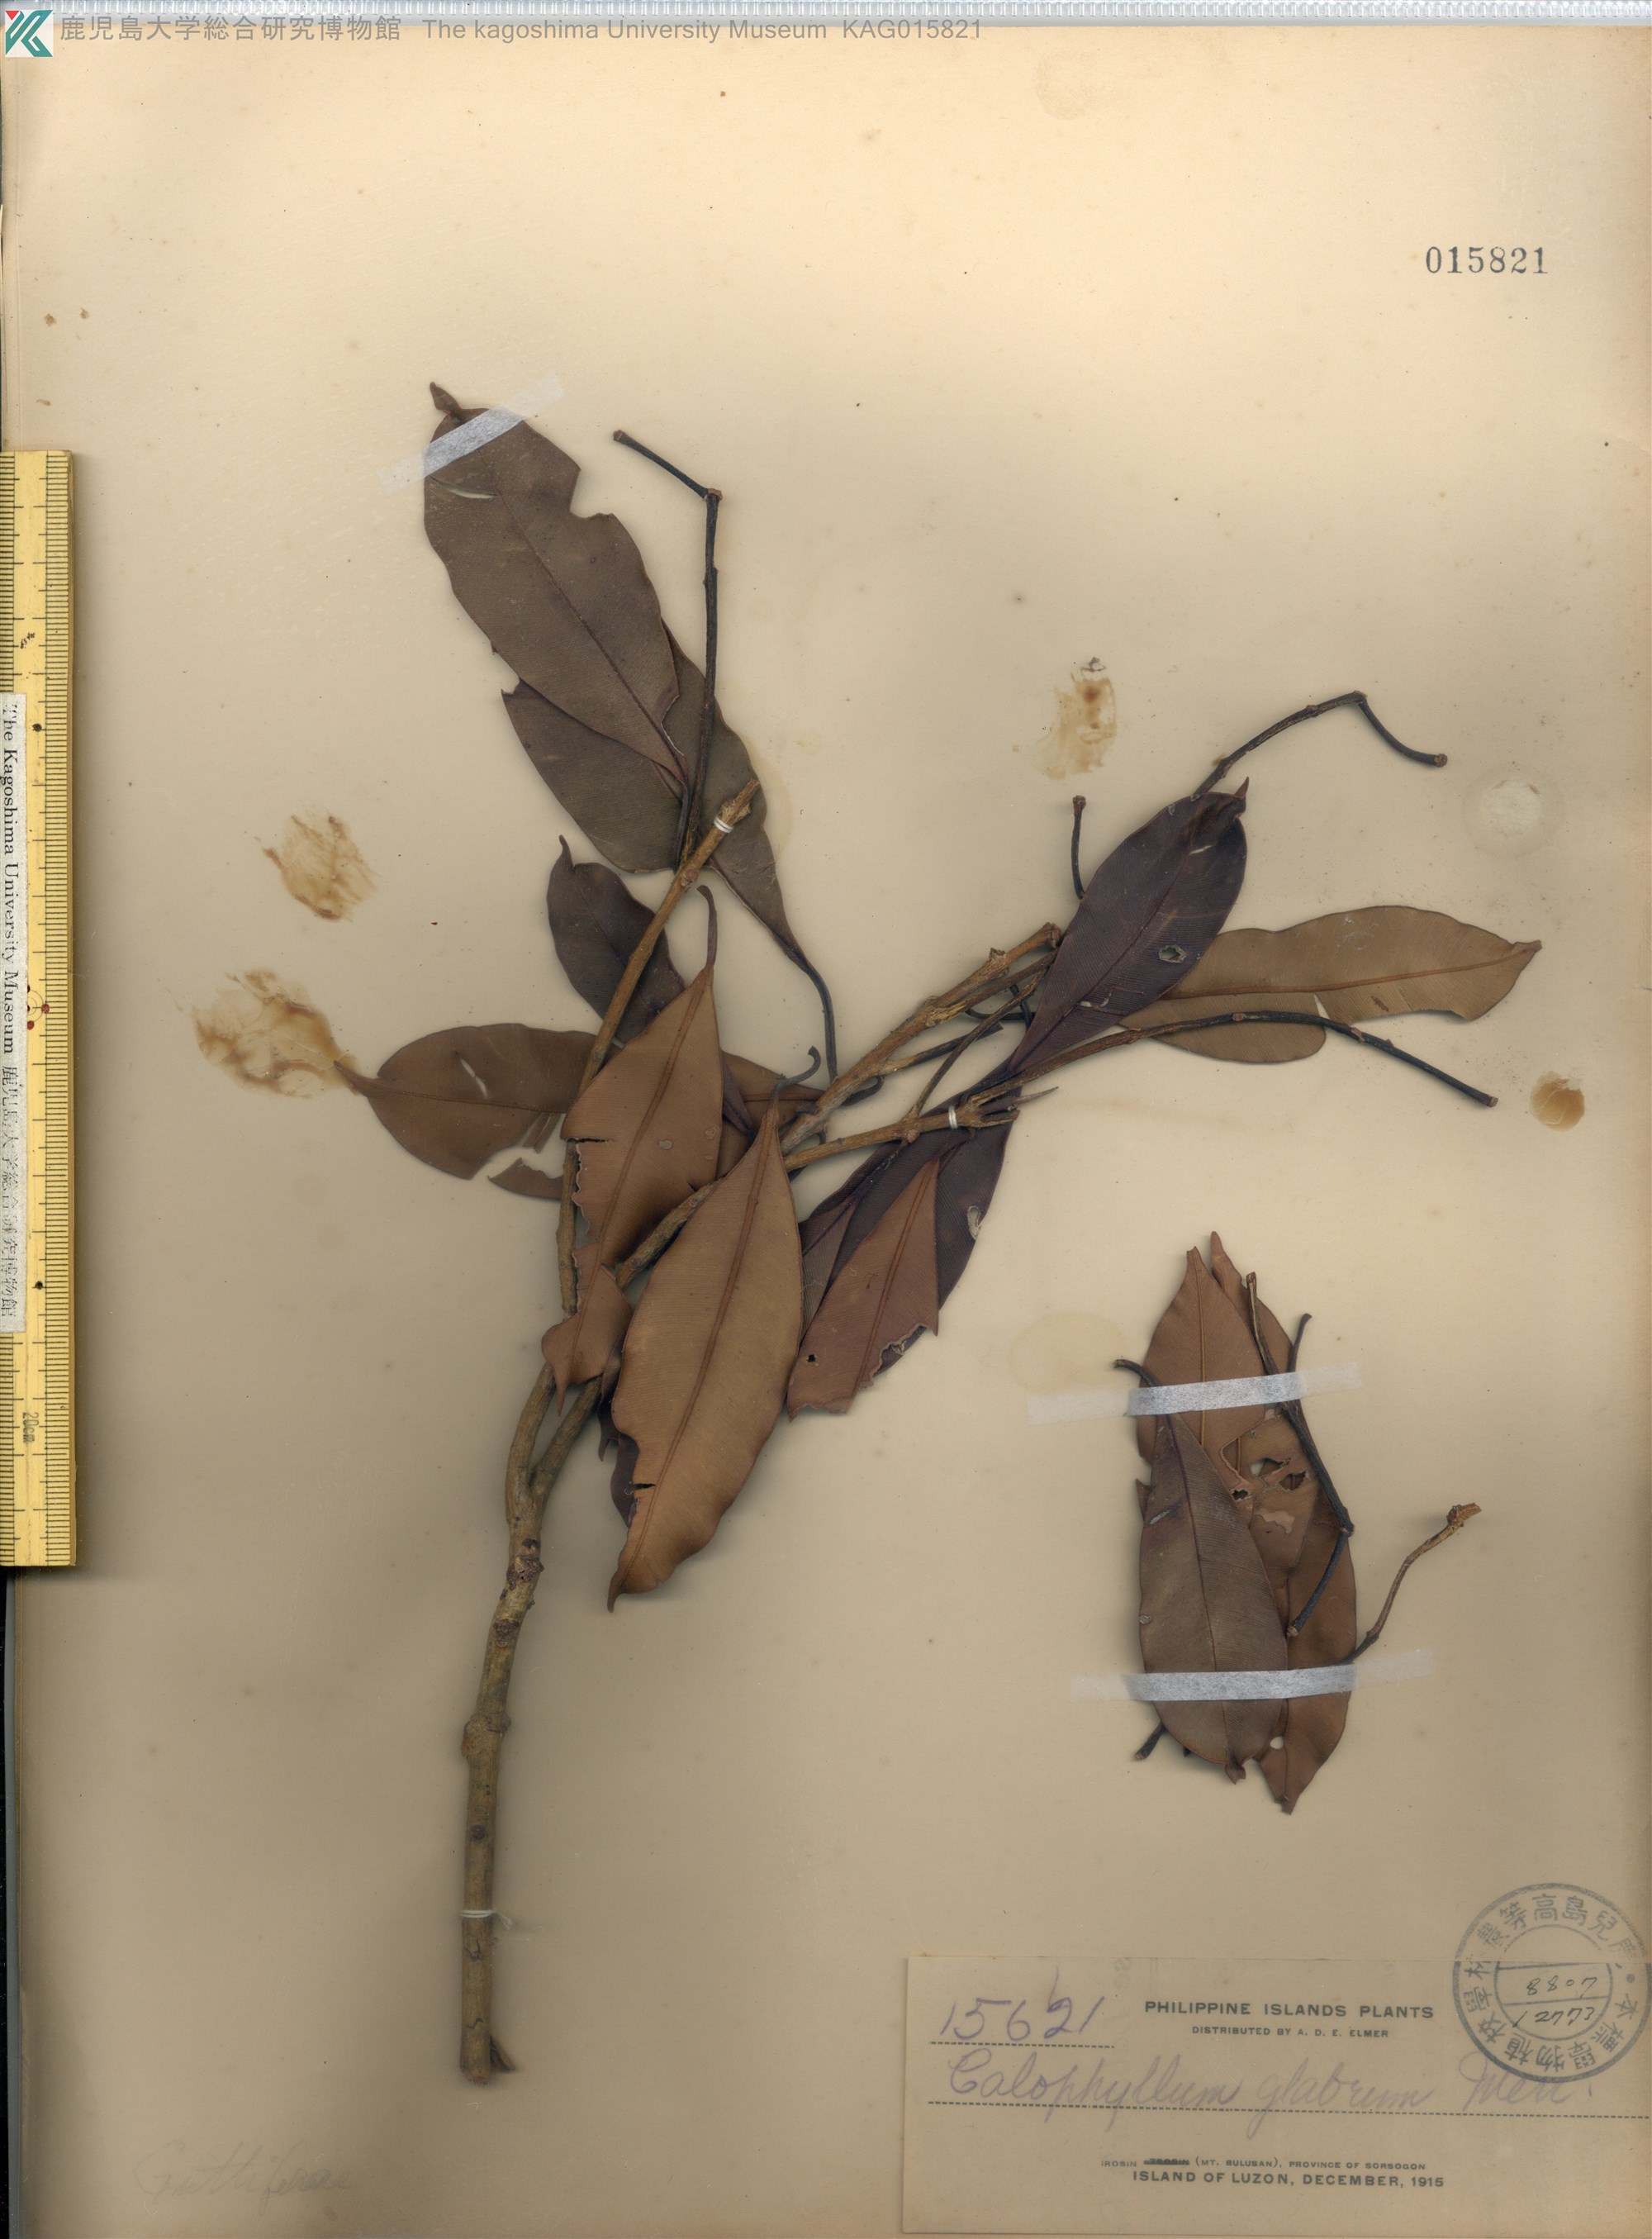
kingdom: Plantae
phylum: Tracheophyta
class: Magnoliopsida
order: Malpighiales
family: Calophyllaceae
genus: Calophyllum
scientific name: Calophyllum blancoi
